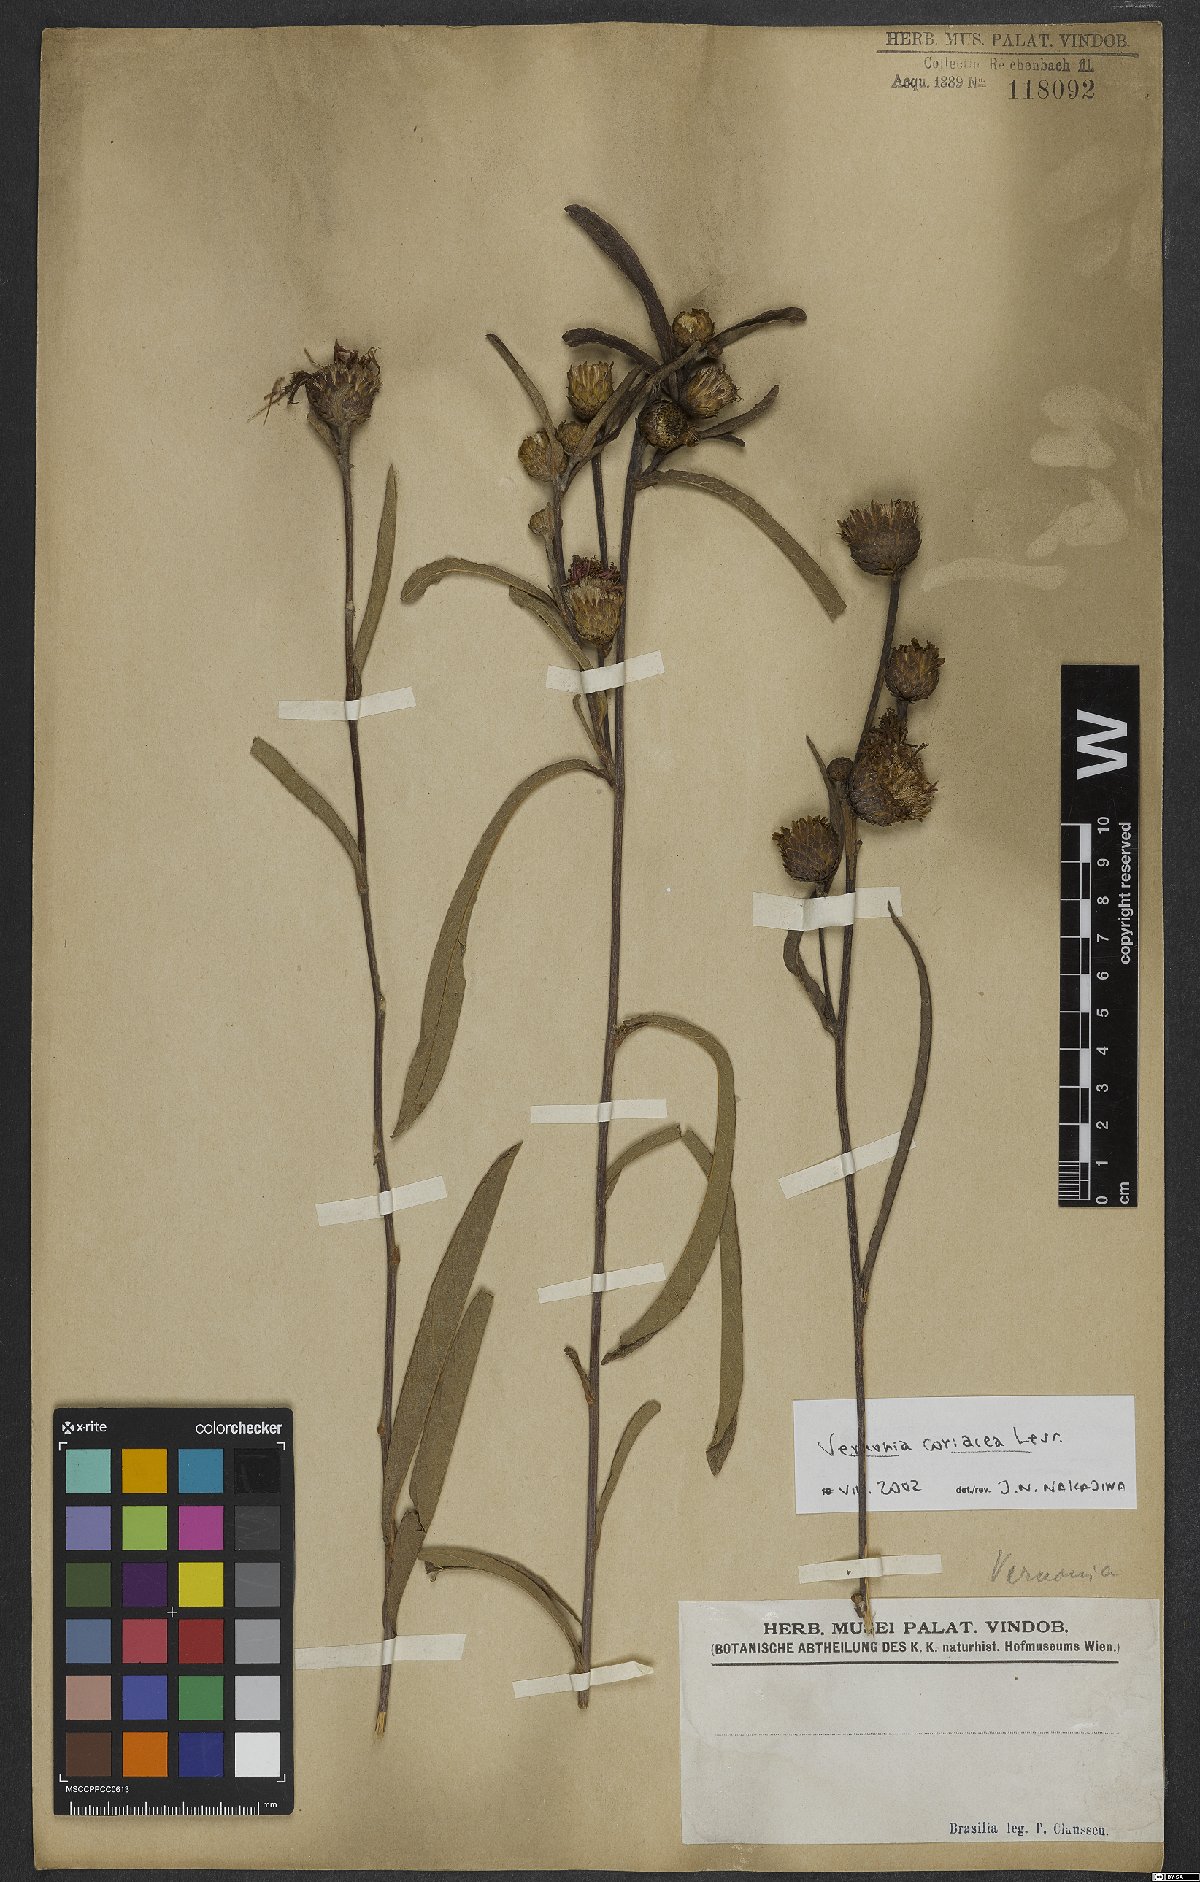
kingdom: Plantae
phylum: Tracheophyta
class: Magnoliopsida
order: Asterales
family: Asteraceae
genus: Lessingianthus
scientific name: Lessingianthus coriaceus
